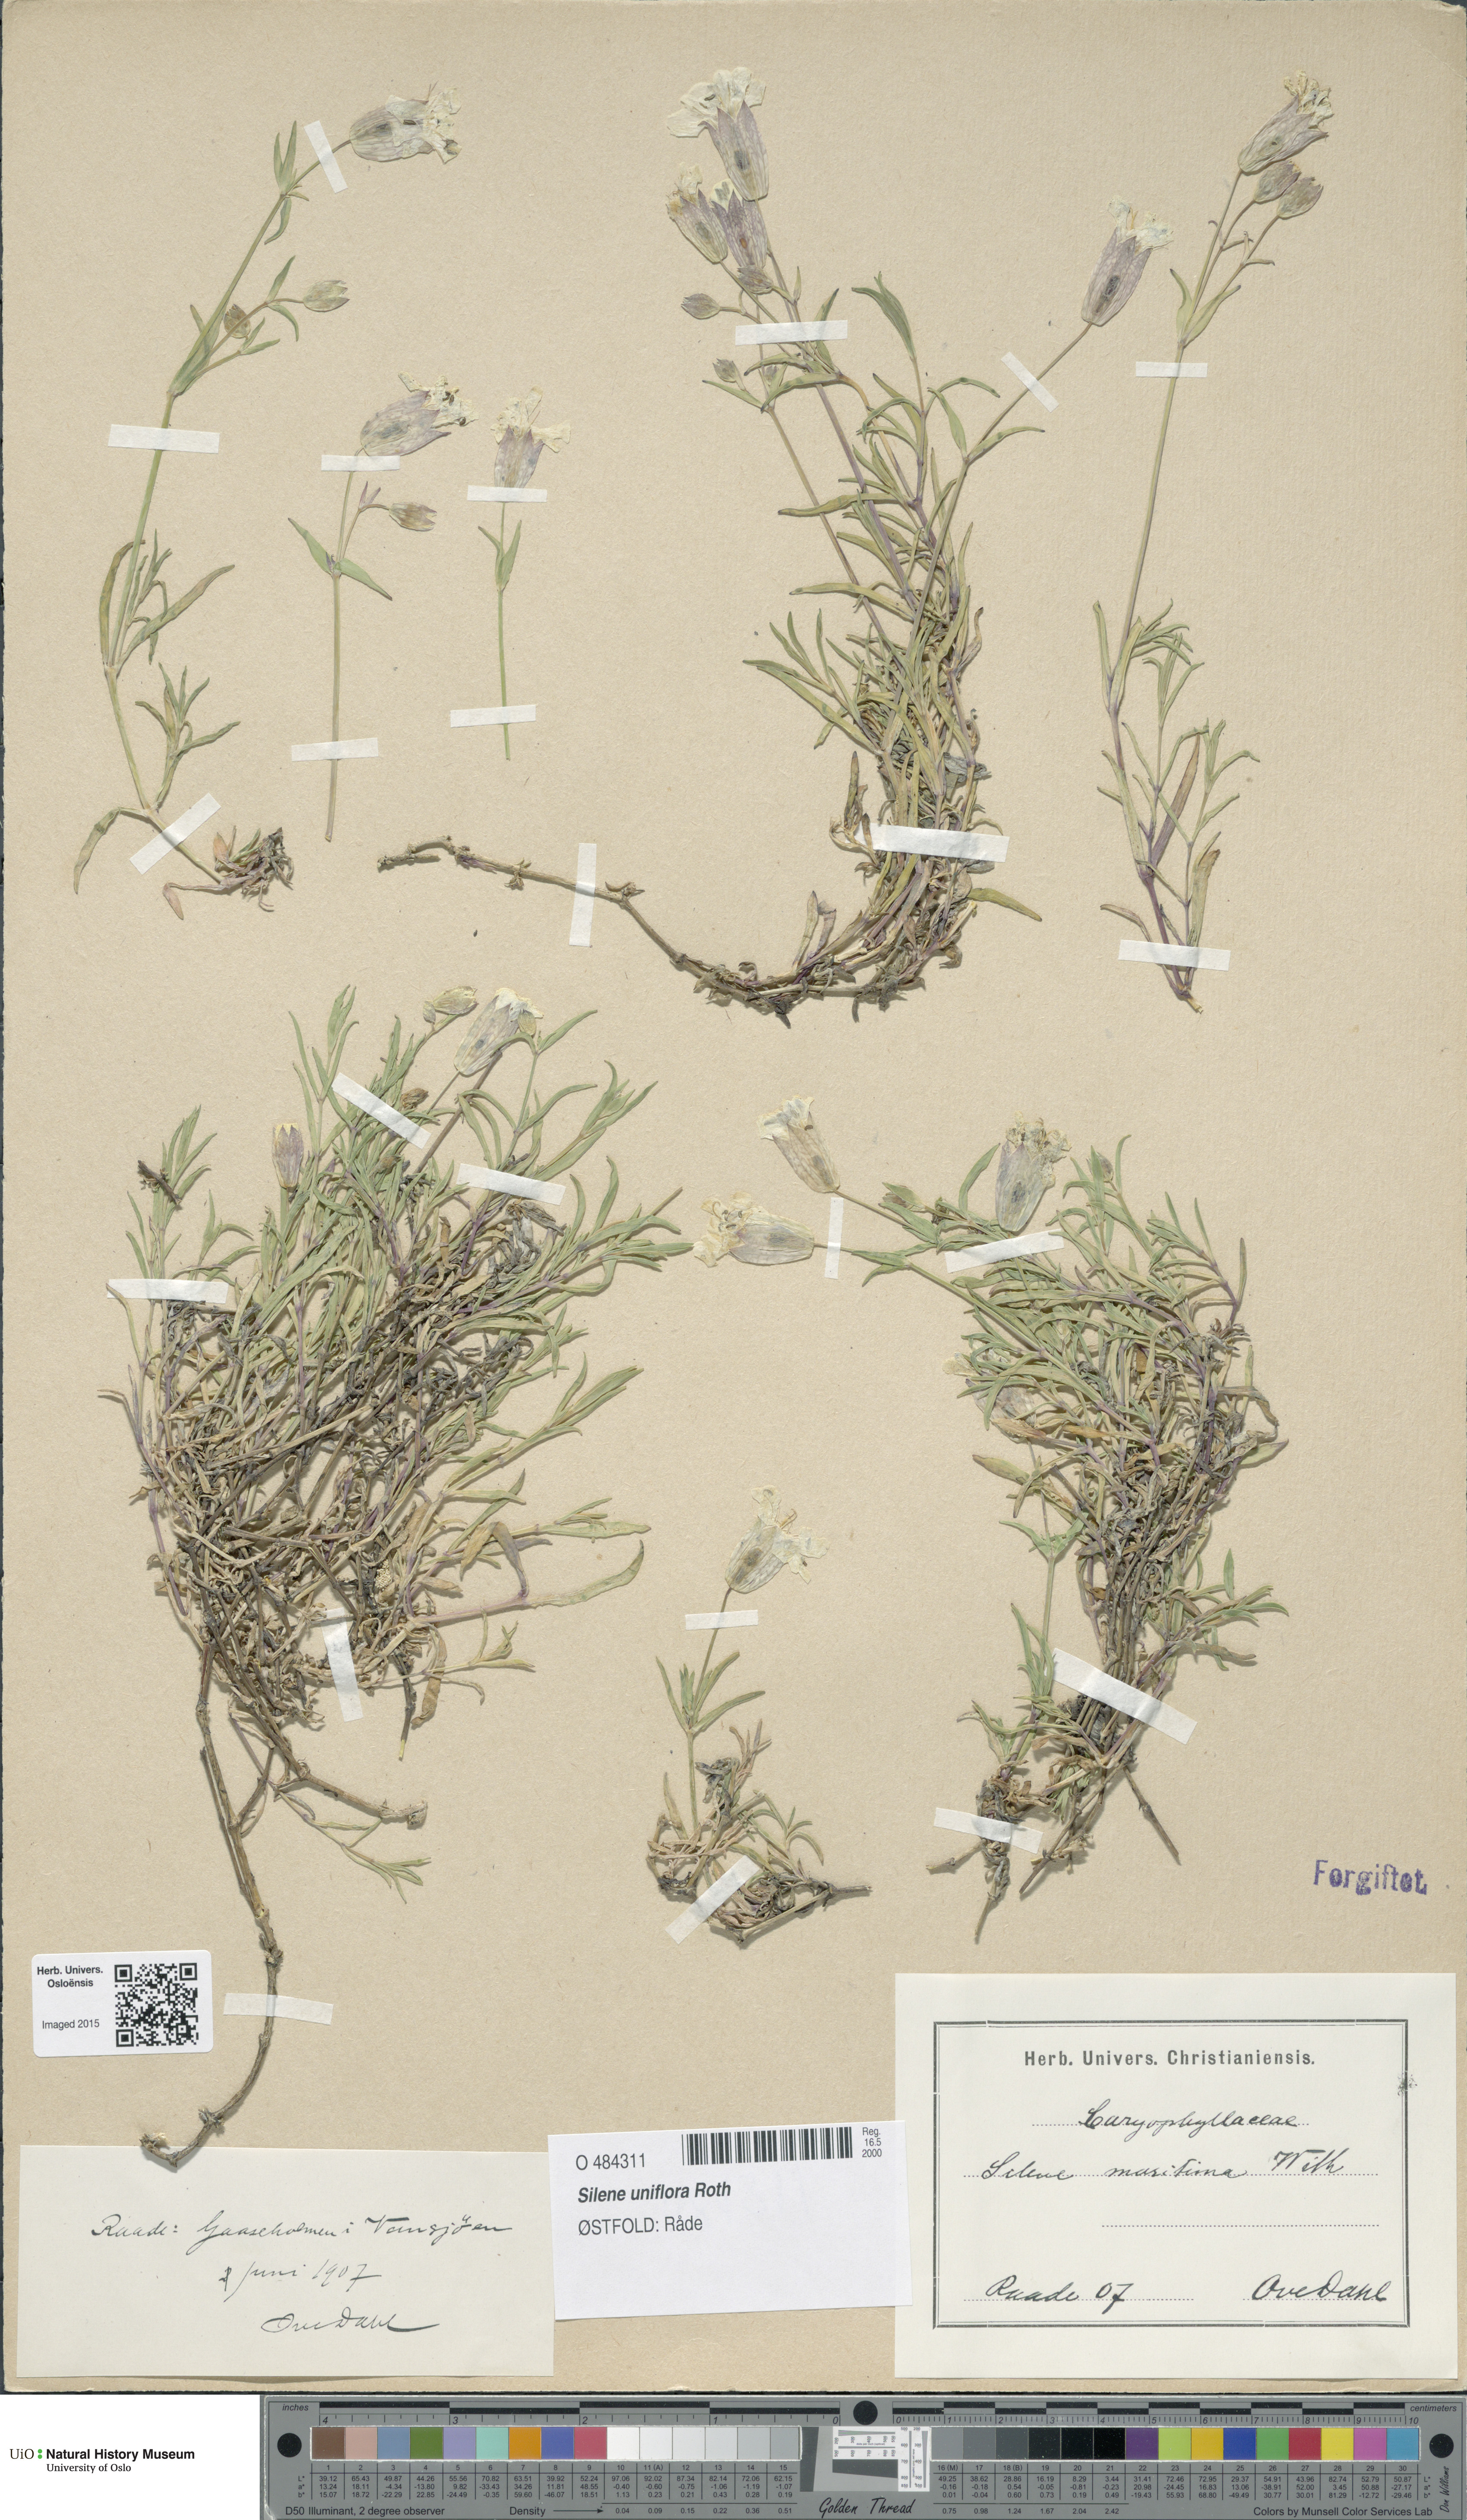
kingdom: Plantae
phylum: Tracheophyta
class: Magnoliopsida
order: Caryophyllales
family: Caryophyllaceae
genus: Silene
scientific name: Silene uniflora
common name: Sea campion
